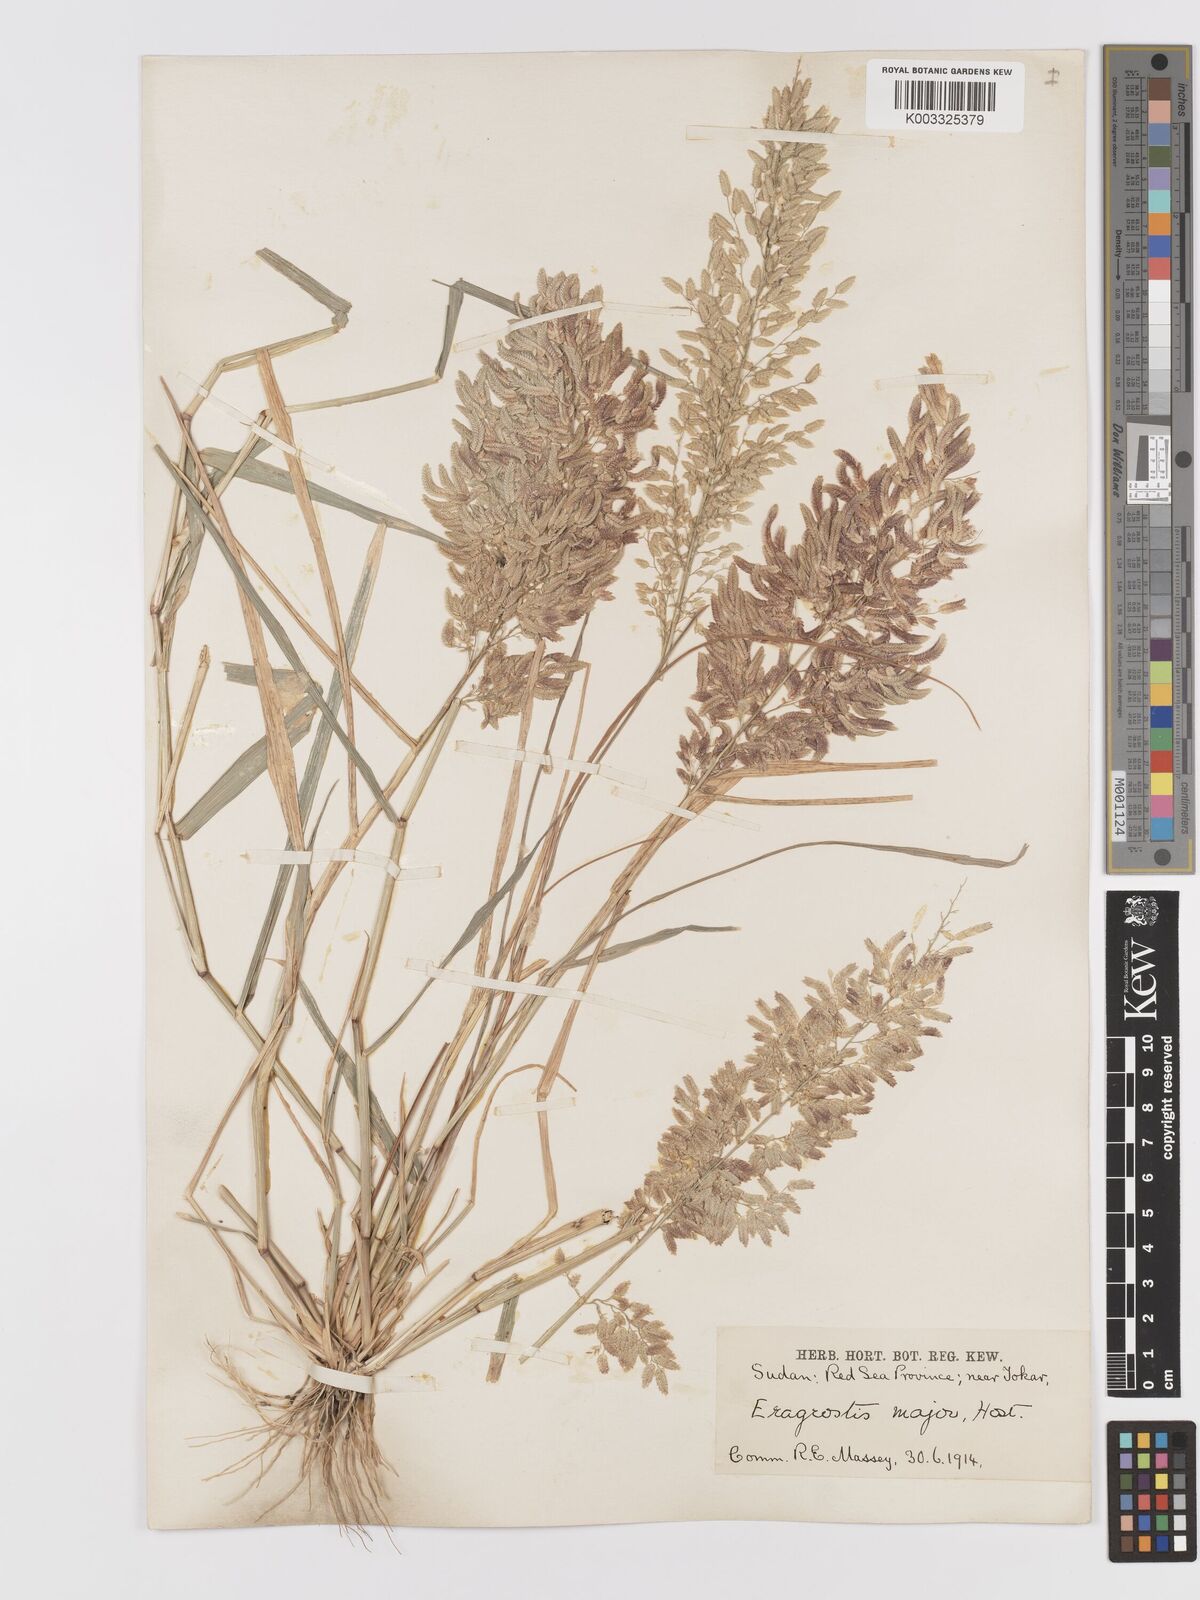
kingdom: Plantae
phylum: Tracheophyta
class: Liliopsida
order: Poales
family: Poaceae
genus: Eragrostis
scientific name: Eragrostis cilianensis
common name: Stinkgrass
